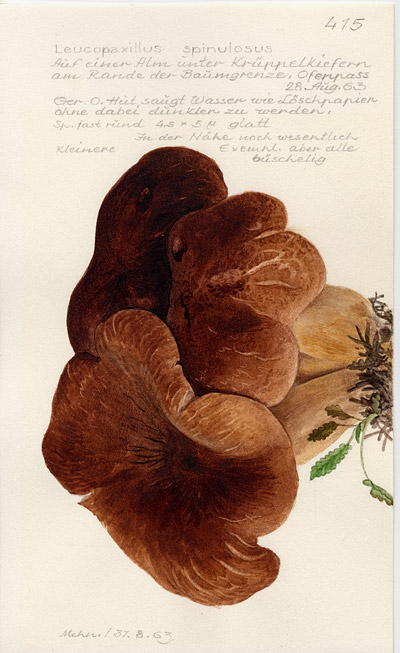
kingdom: Fungi
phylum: Basidiomycota
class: Agaricomycetes
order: Agaricales
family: Pseudoclitocybaceae
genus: Pogonoloma
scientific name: Pogonoloma spinulosum
